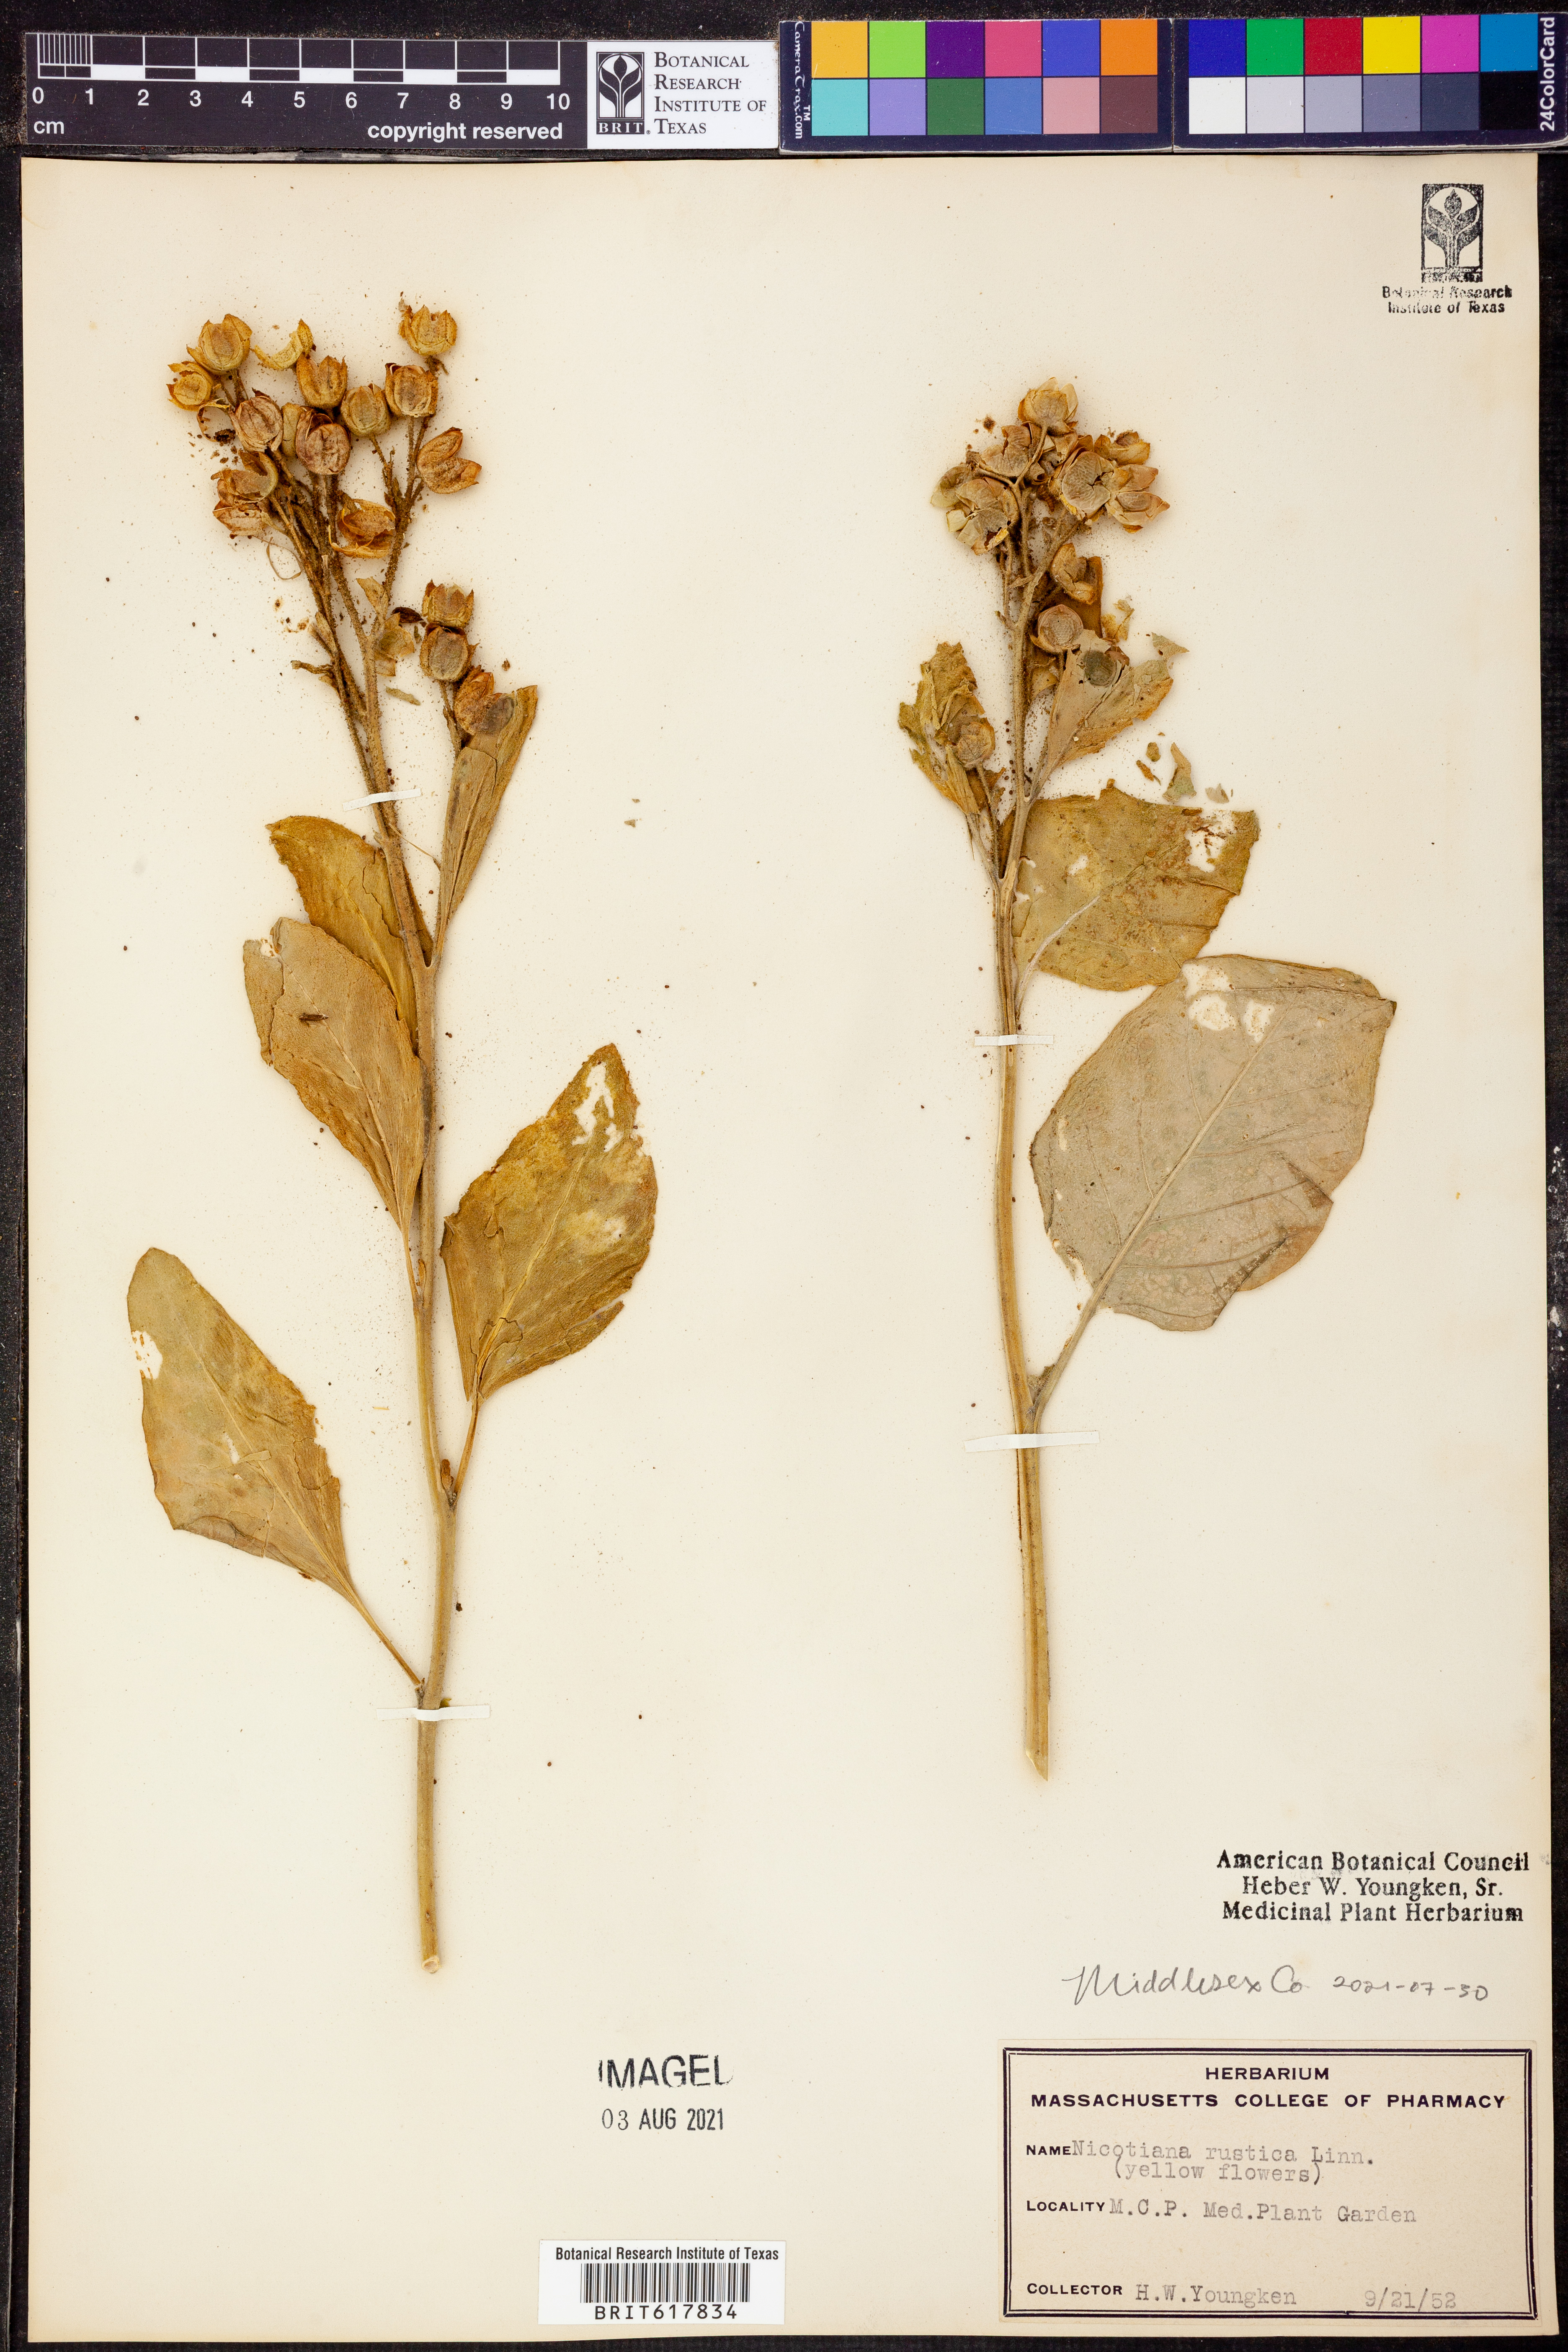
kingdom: Plantae
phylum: Tracheophyta
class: Magnoliopsida
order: Solanales
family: Solanaceae
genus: Nicotiana
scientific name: Nicotiana rustica
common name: Wild tobacco
